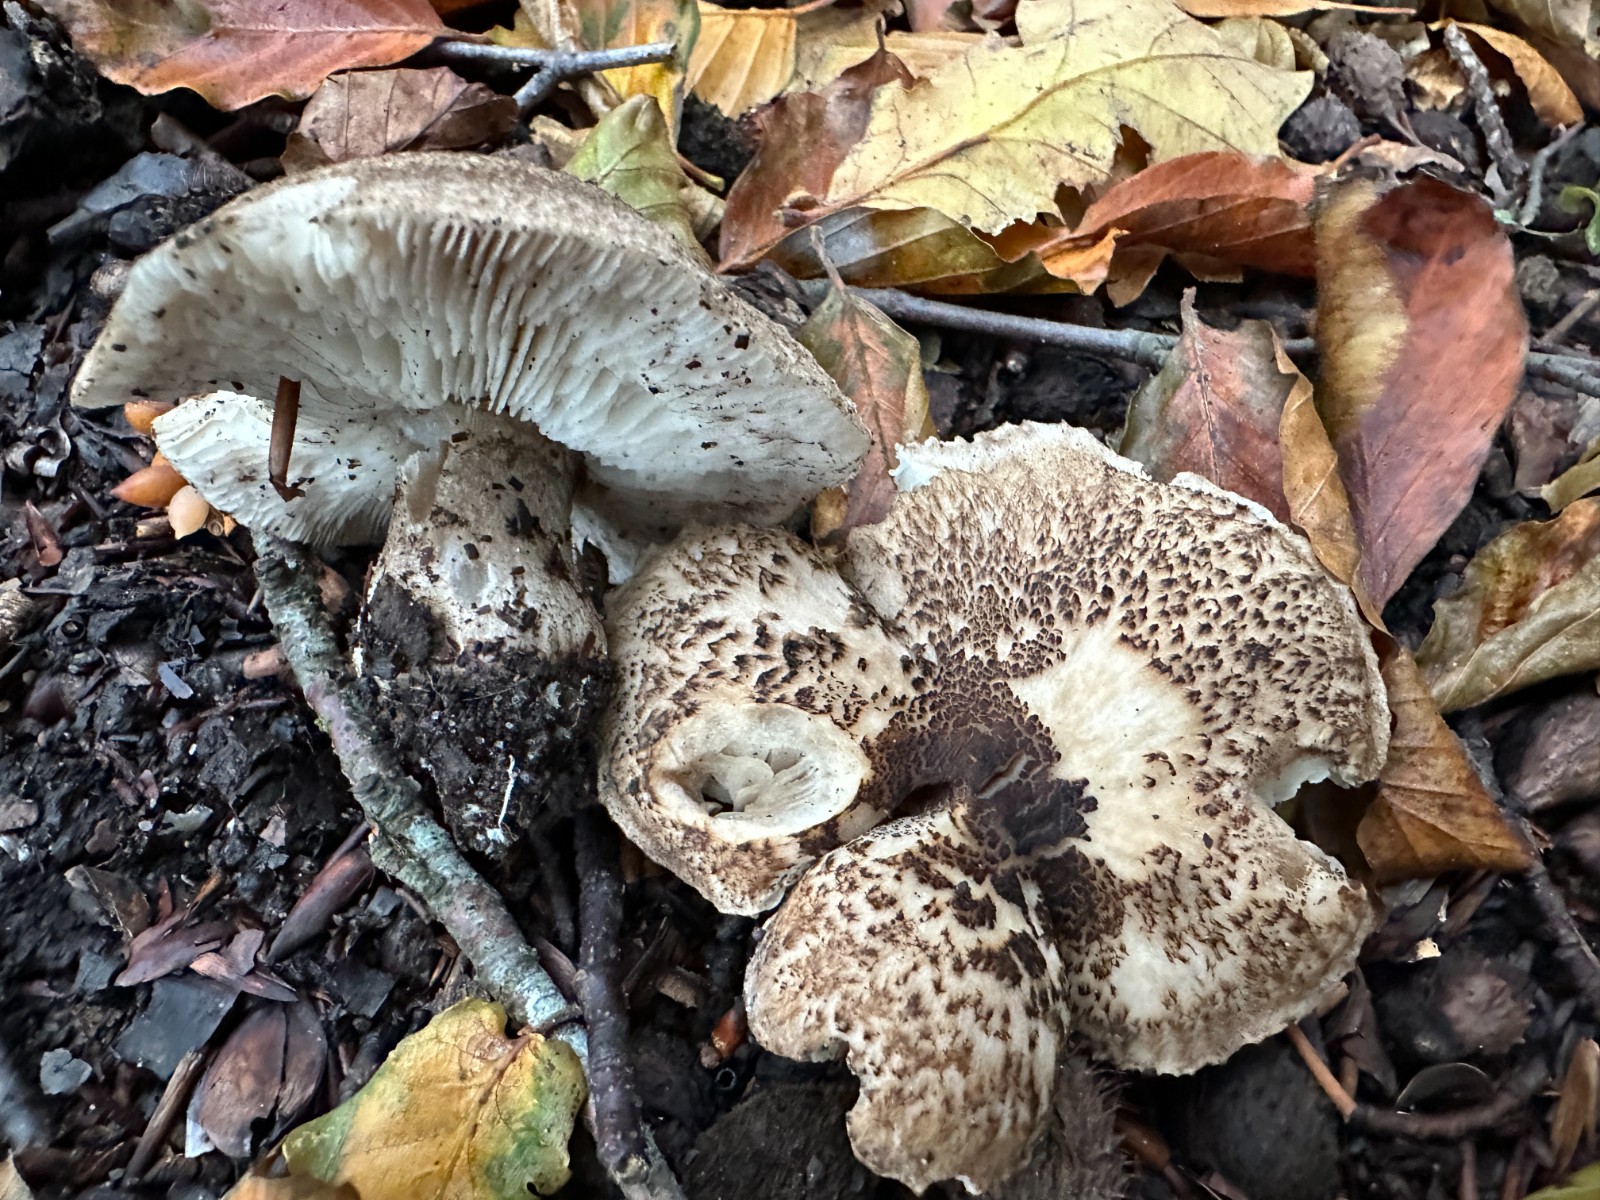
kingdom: Fungi
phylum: Basidiomycota
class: Agaricomycetes
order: Agaricales
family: Tricholomataceae
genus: Tricholoma
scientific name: Tricholoma atrosquamosum
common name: sortskællet ridderhat
